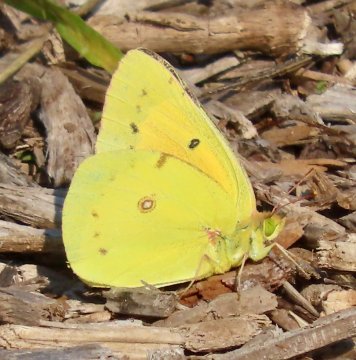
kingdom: Animalia
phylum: Arthropoda
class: Insecta
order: Lepidoptera
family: Pieridae
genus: Colias
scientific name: Colias eurytheme
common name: Orange Sulphur
